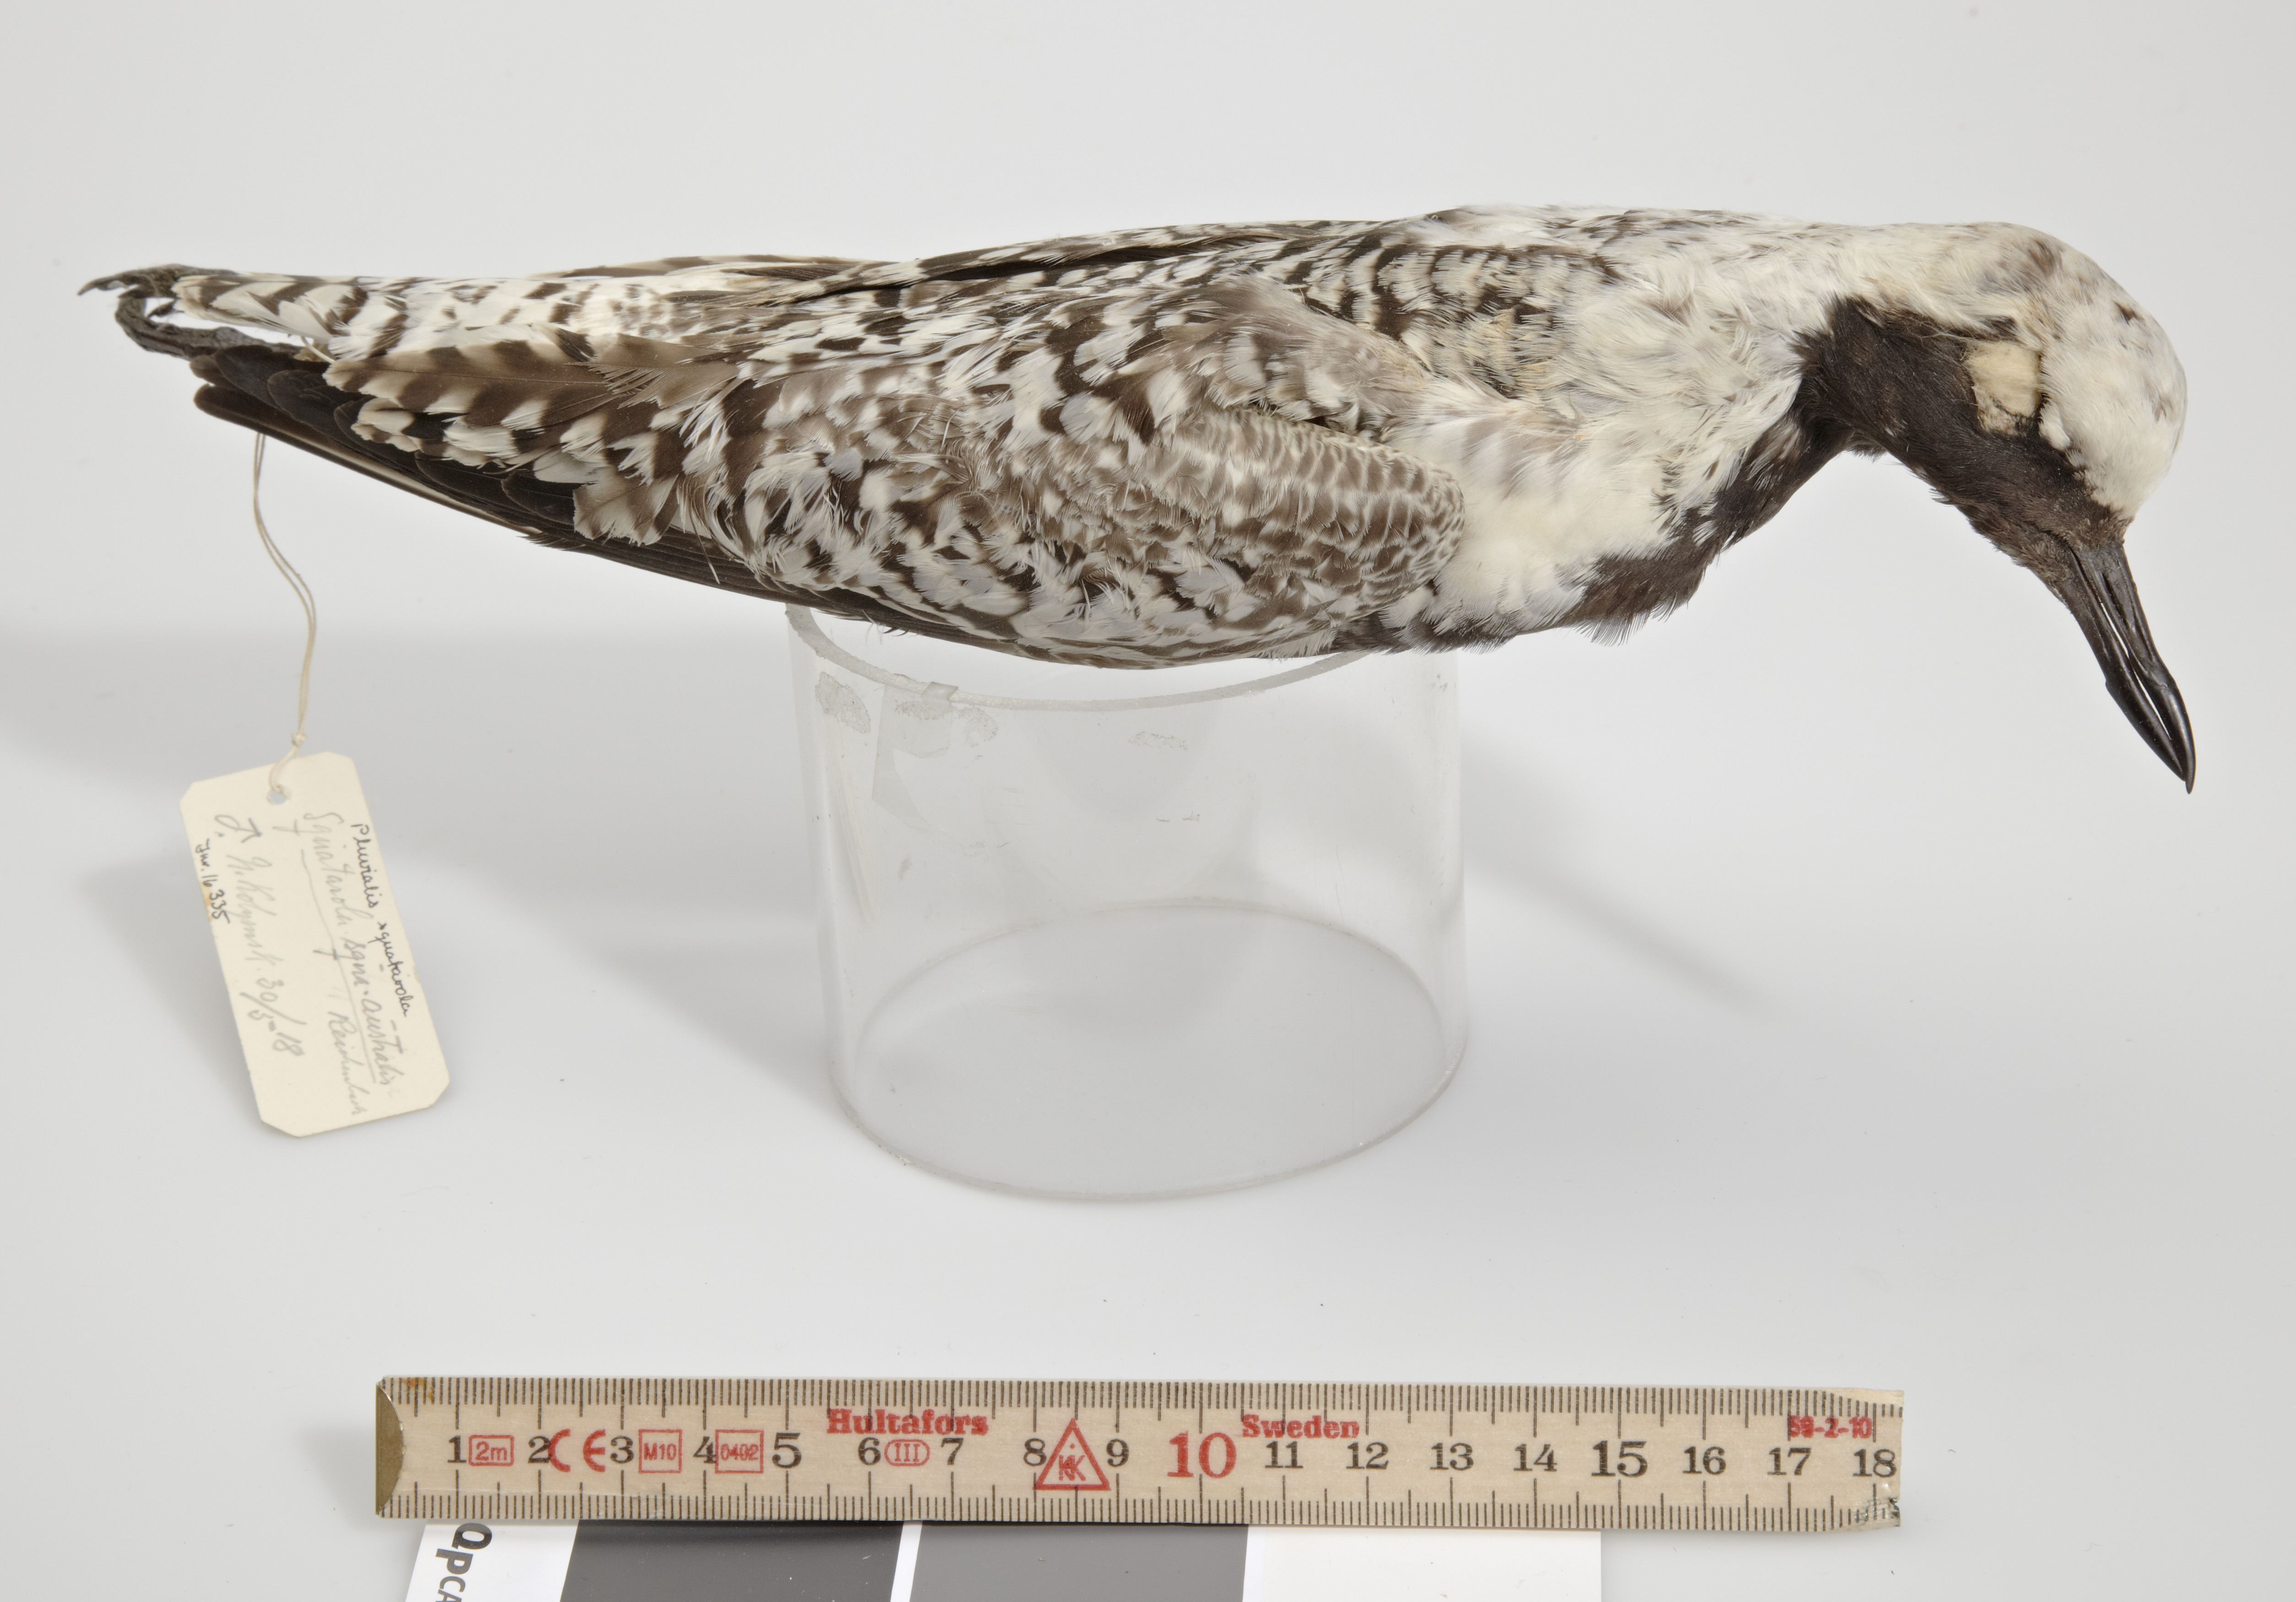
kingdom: Animalia
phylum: Chordata
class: Aves
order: Charadriiformes
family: Charadriidae
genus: Pluvialis
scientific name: Pluvialis squatarola
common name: Grey plover
